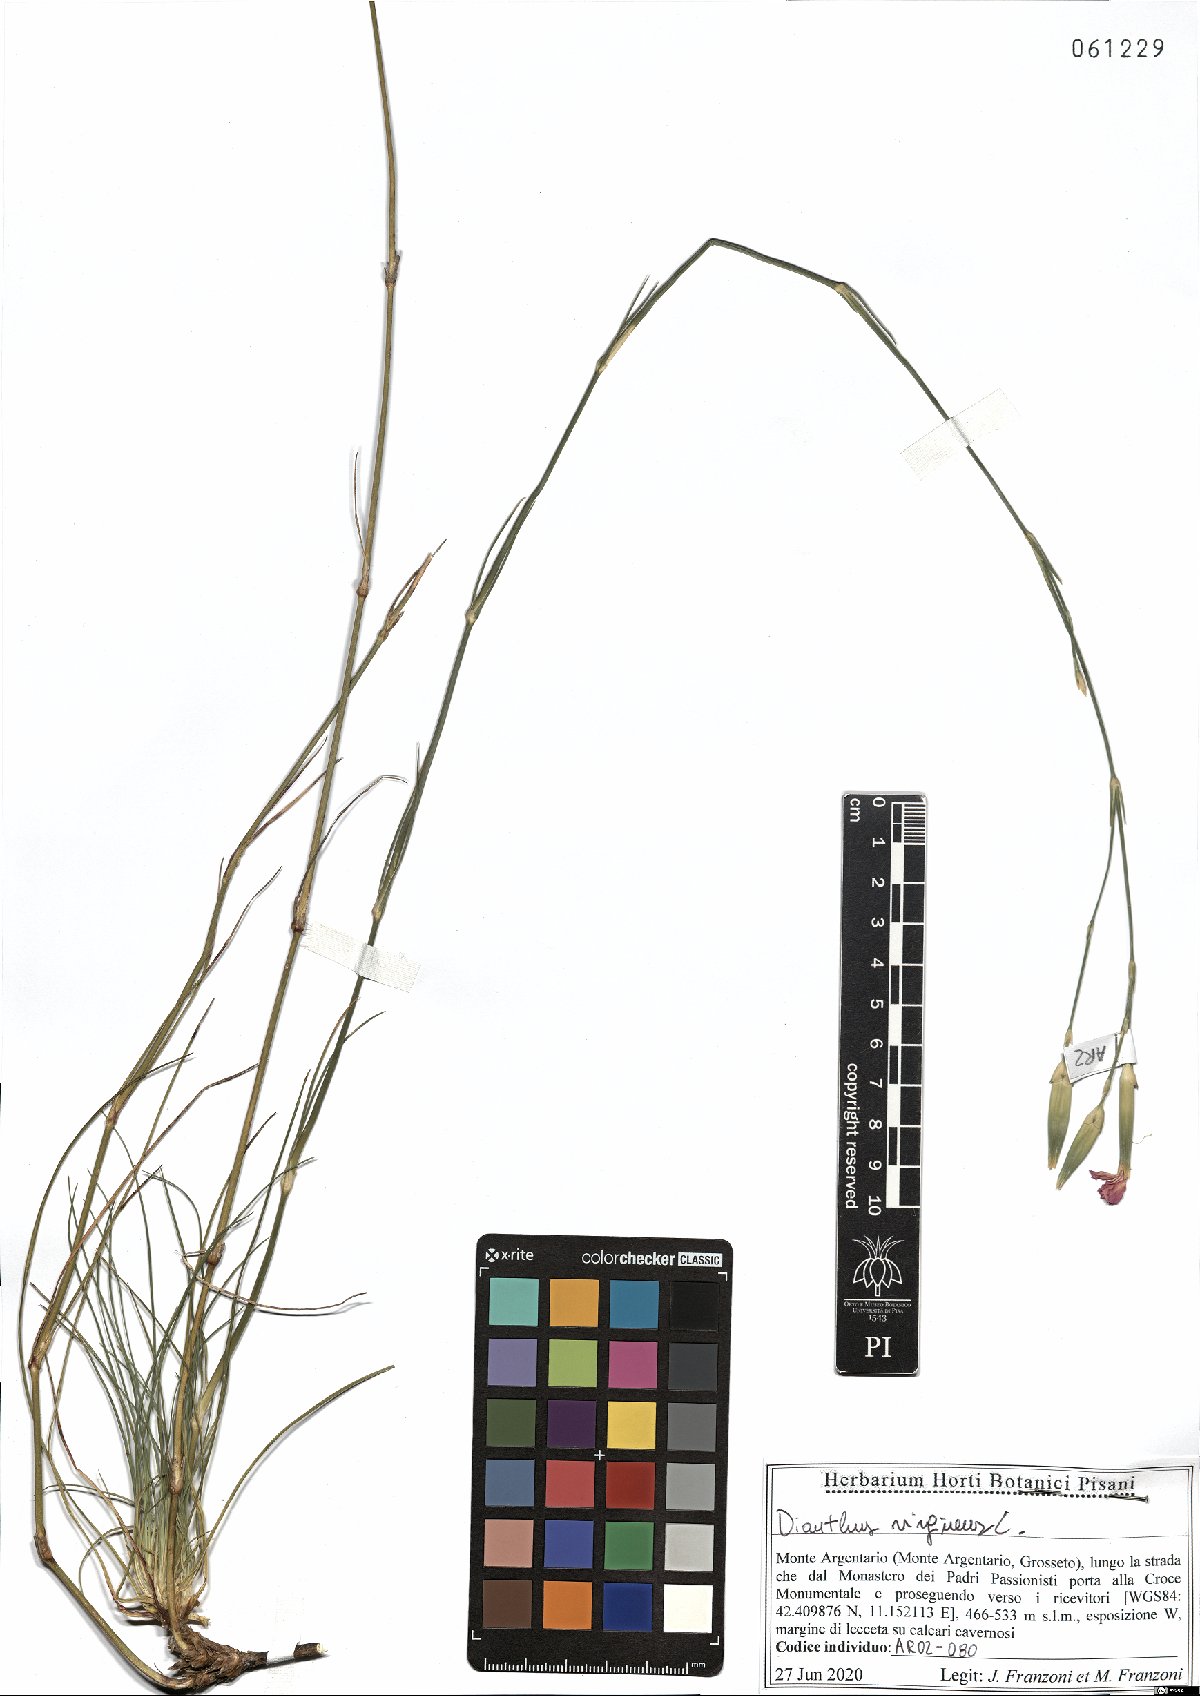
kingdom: Plantae
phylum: Tracheophyta
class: Magnoliopsida
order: Caryophyllales
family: Caryophyllaceae
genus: Dianthus
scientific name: Dianthus virgineus
